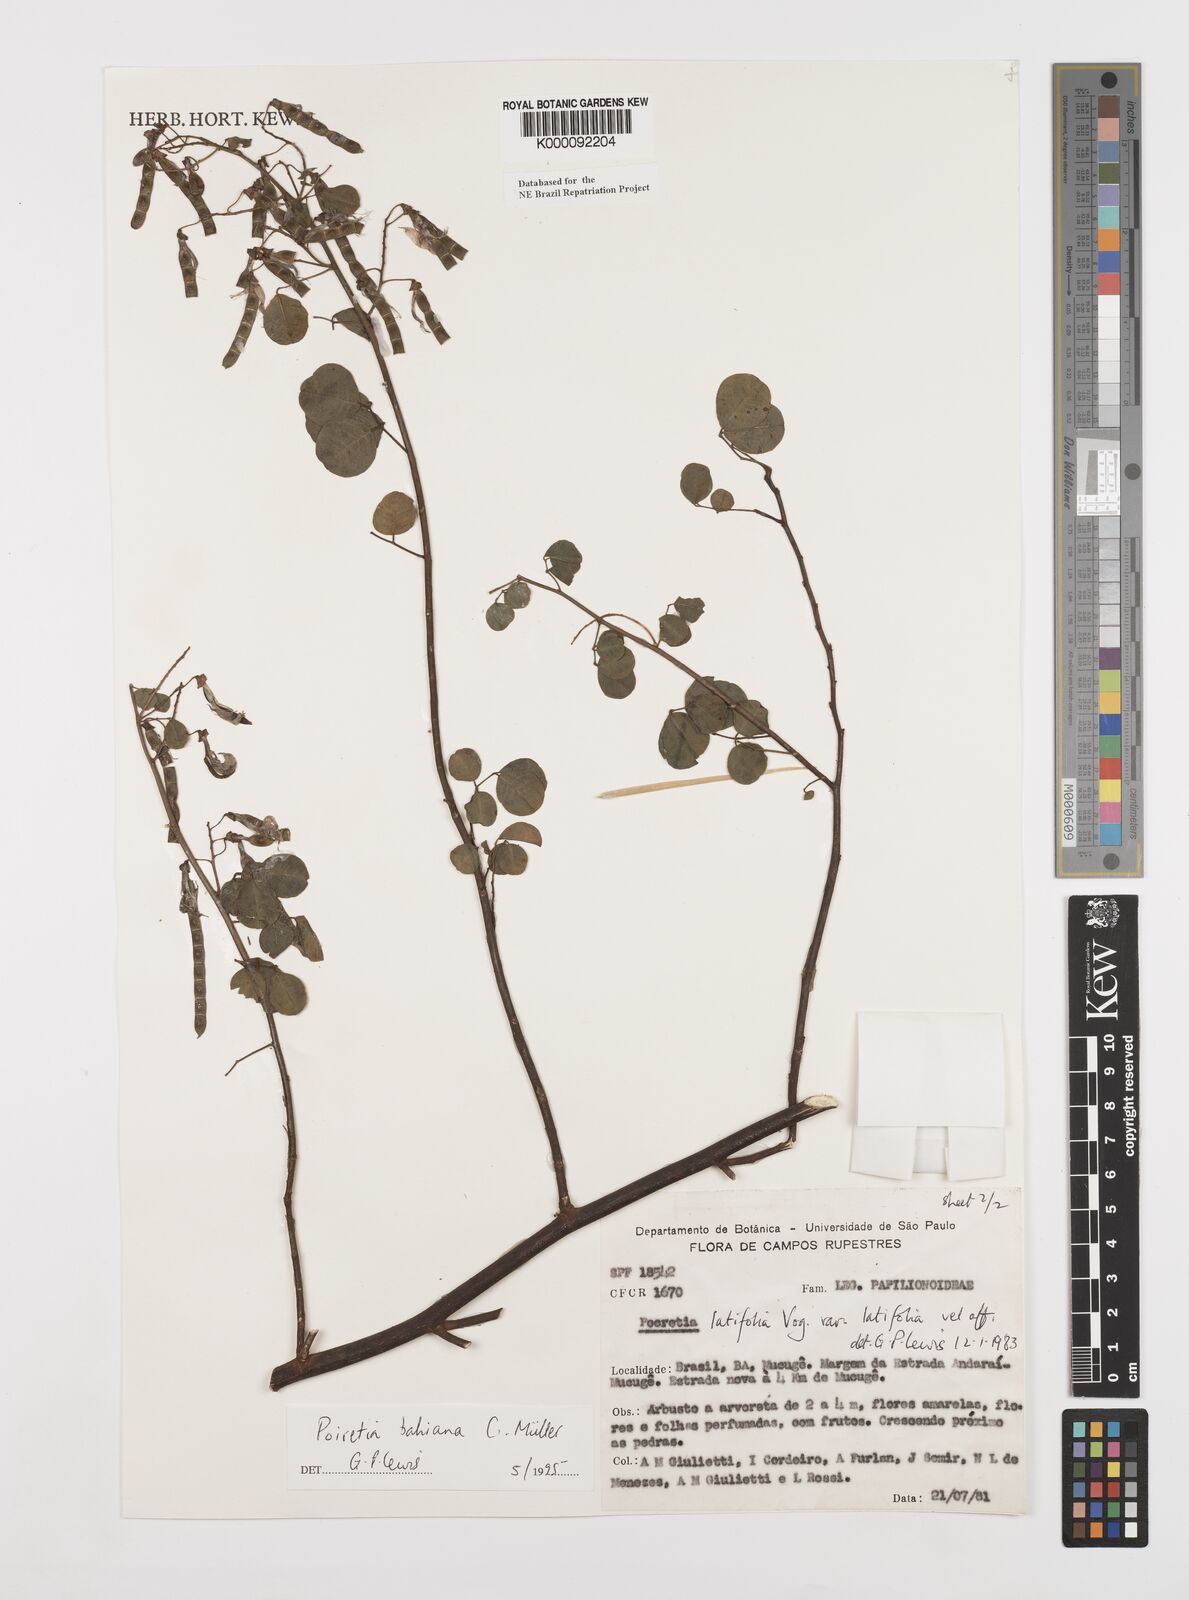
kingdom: Plantae
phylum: Tracheophyta
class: Magnoliopsida
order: Fabales
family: Fabaceae
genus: Poiretia
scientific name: Poiretia
